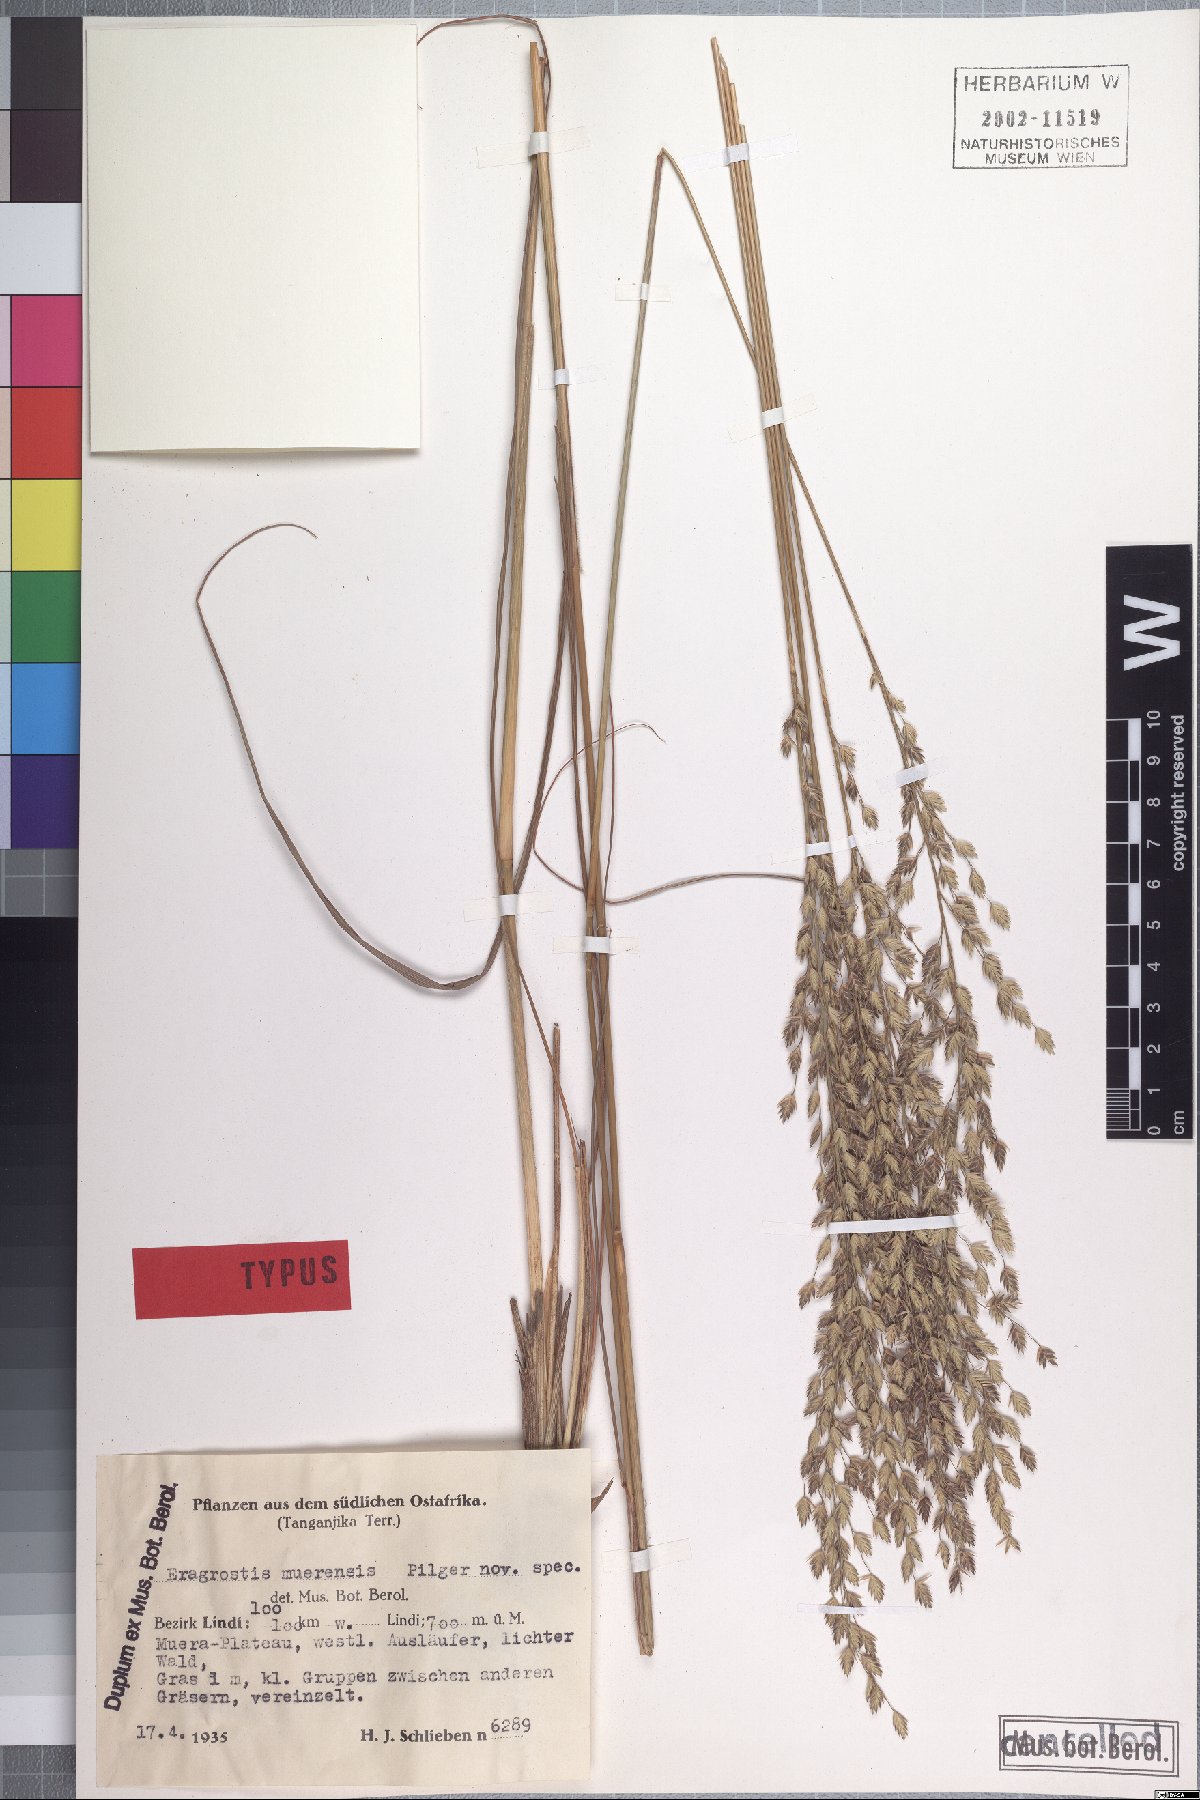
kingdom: Plantae
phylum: Tracheophyta
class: Liliopsida
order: Poales
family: Poaceae
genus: Eragrostis
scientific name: Eragrostis muerensis
